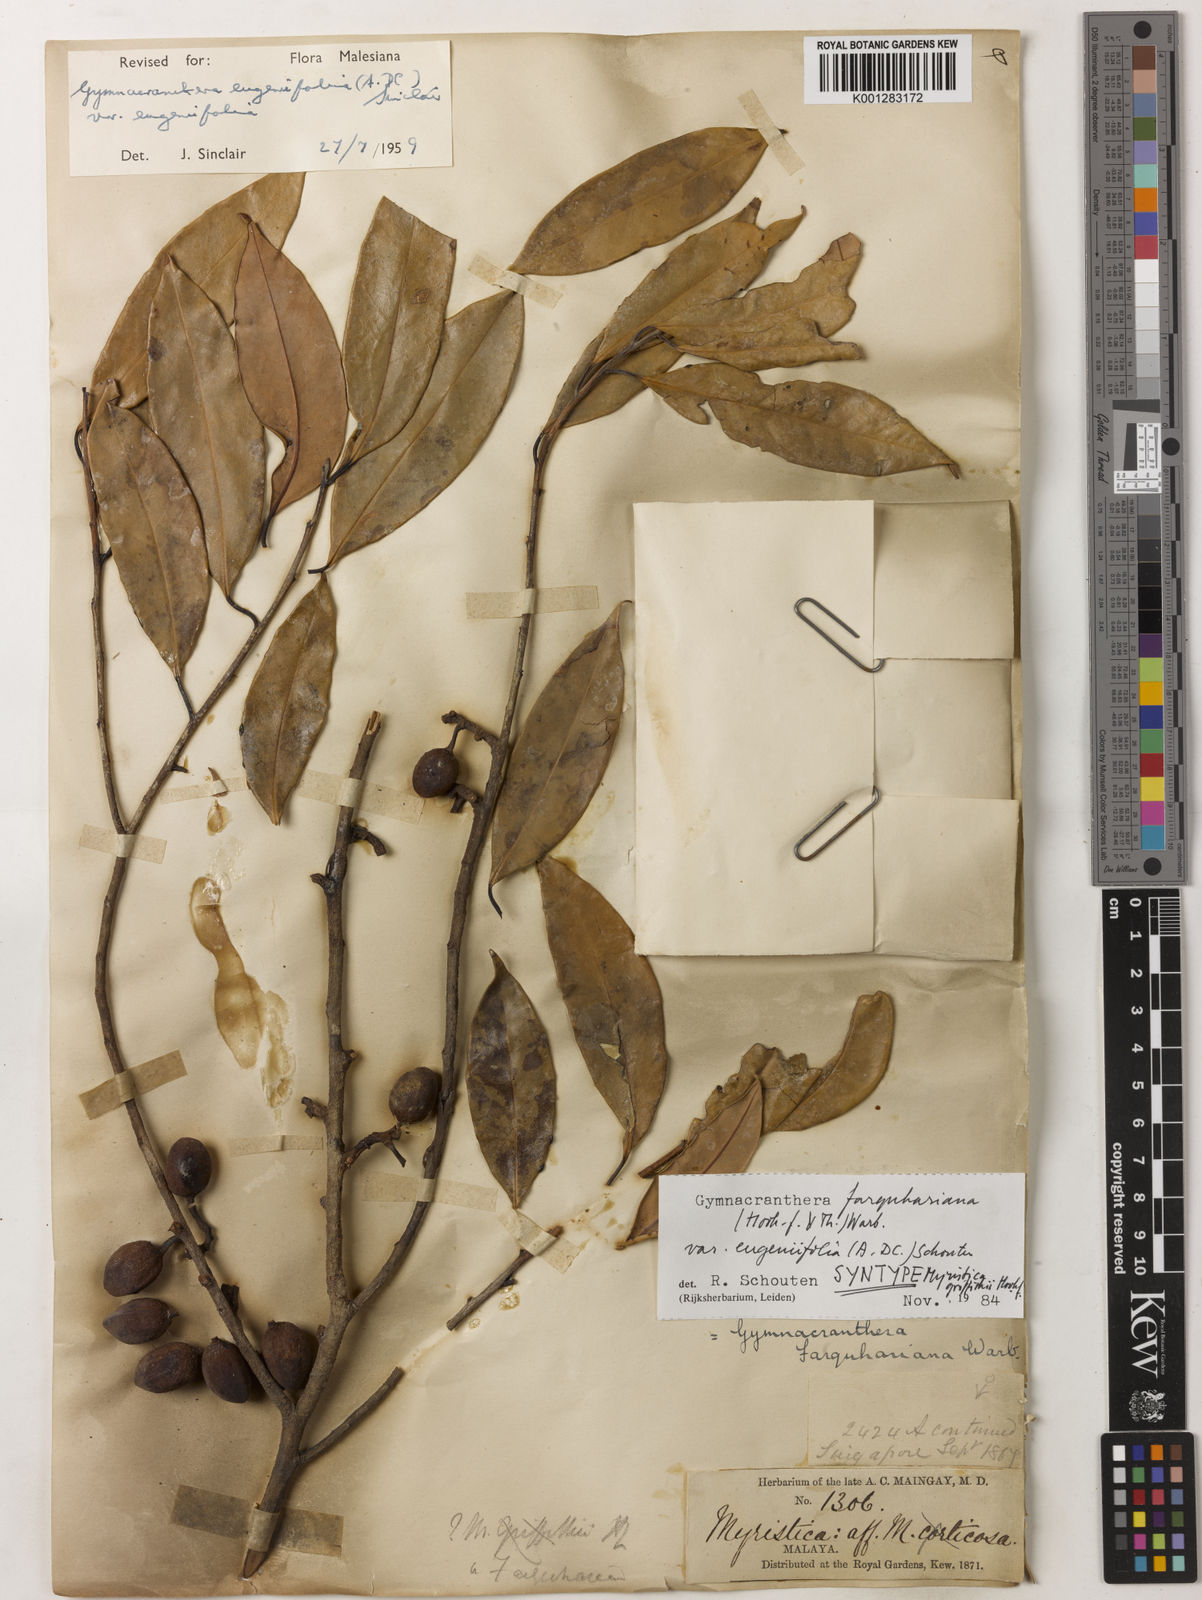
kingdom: Plantae
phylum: Tracheophyta
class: Magnoliopsida
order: Magnoliales
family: Myristicaceae
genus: Gymnacranthera
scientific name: Gymnacranthera farquhariana
